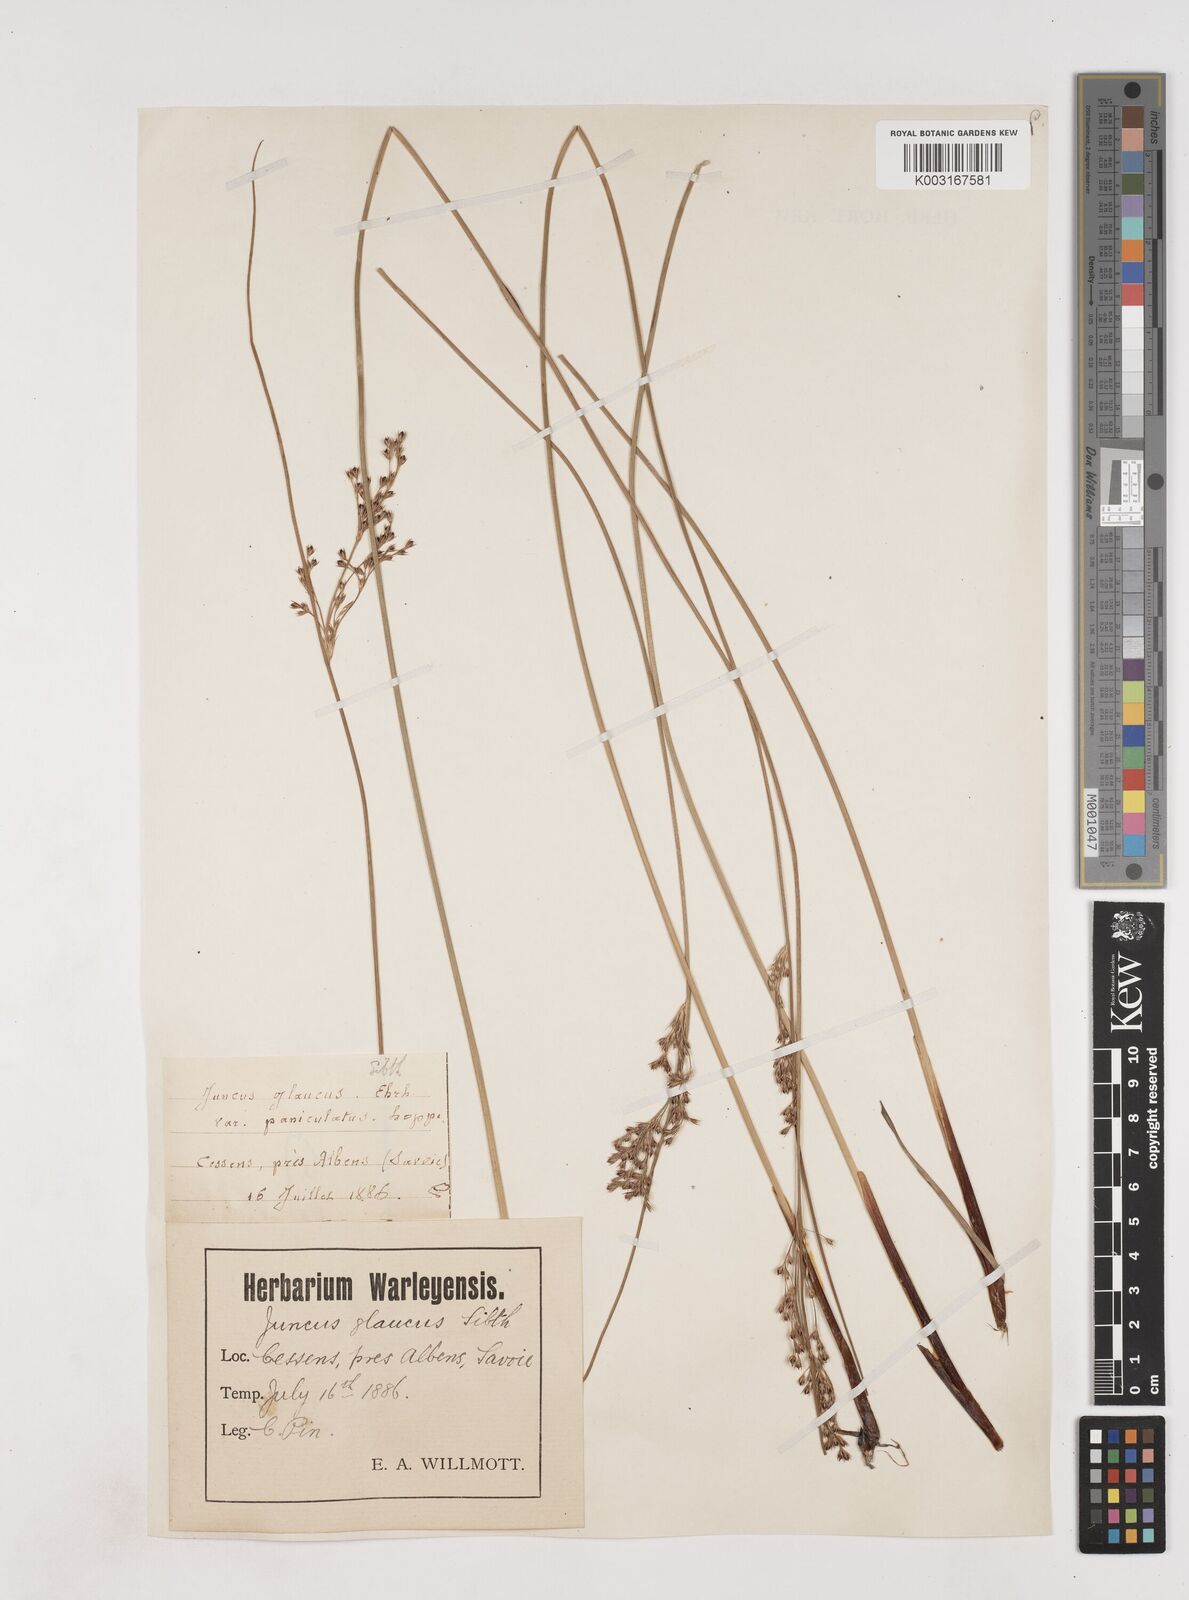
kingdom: Plantae
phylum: Tracheophyta
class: Liliopsida
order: Poales
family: Juncaceae
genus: Juncus
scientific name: Juncus inflexus
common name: Hard rush
